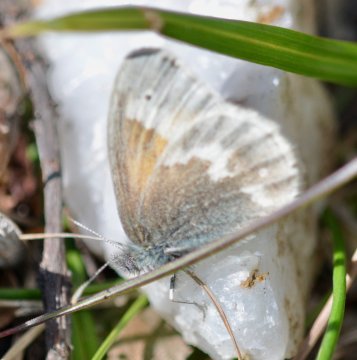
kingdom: Animalia
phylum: Arthropoda
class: Insecta
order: Lepidoptera
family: Nymphalidae
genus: Coenonympha
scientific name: Coenonympha tullia
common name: Large Heath
